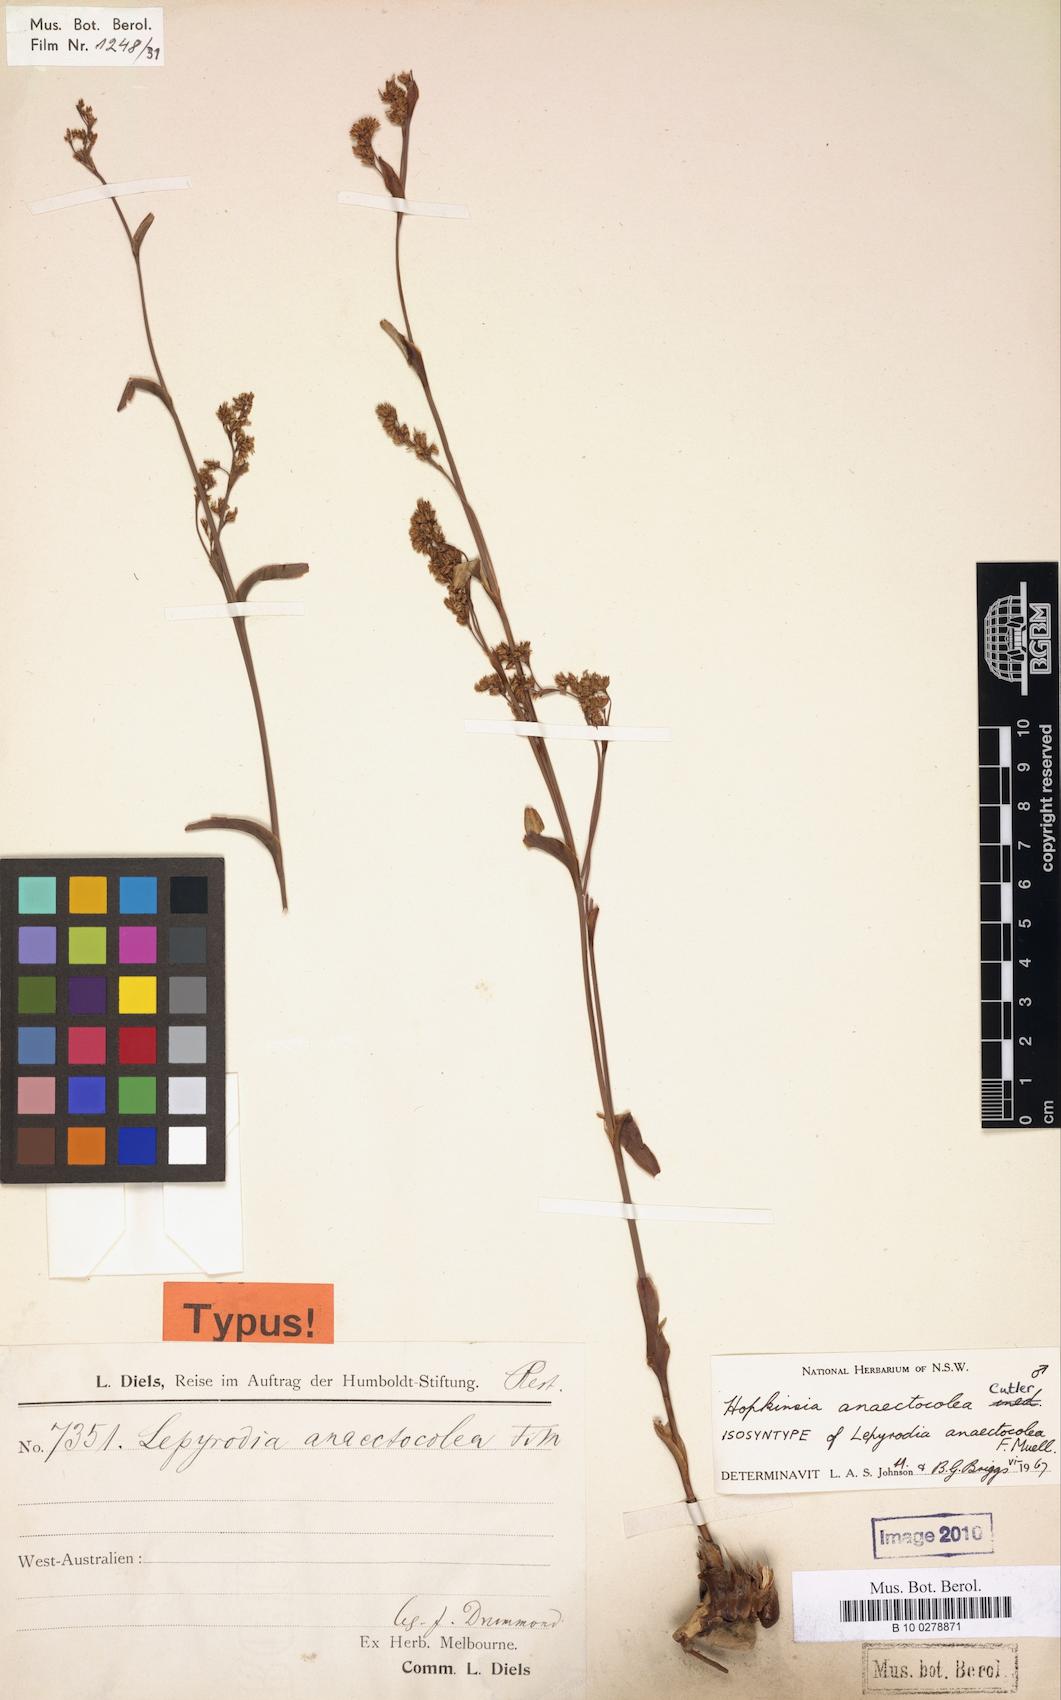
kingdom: Plantae
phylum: Tracheophyta
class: Liliopsida
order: Poales
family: Restionaceae
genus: Hopkinsia
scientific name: Hopkinsia anoectocolea
